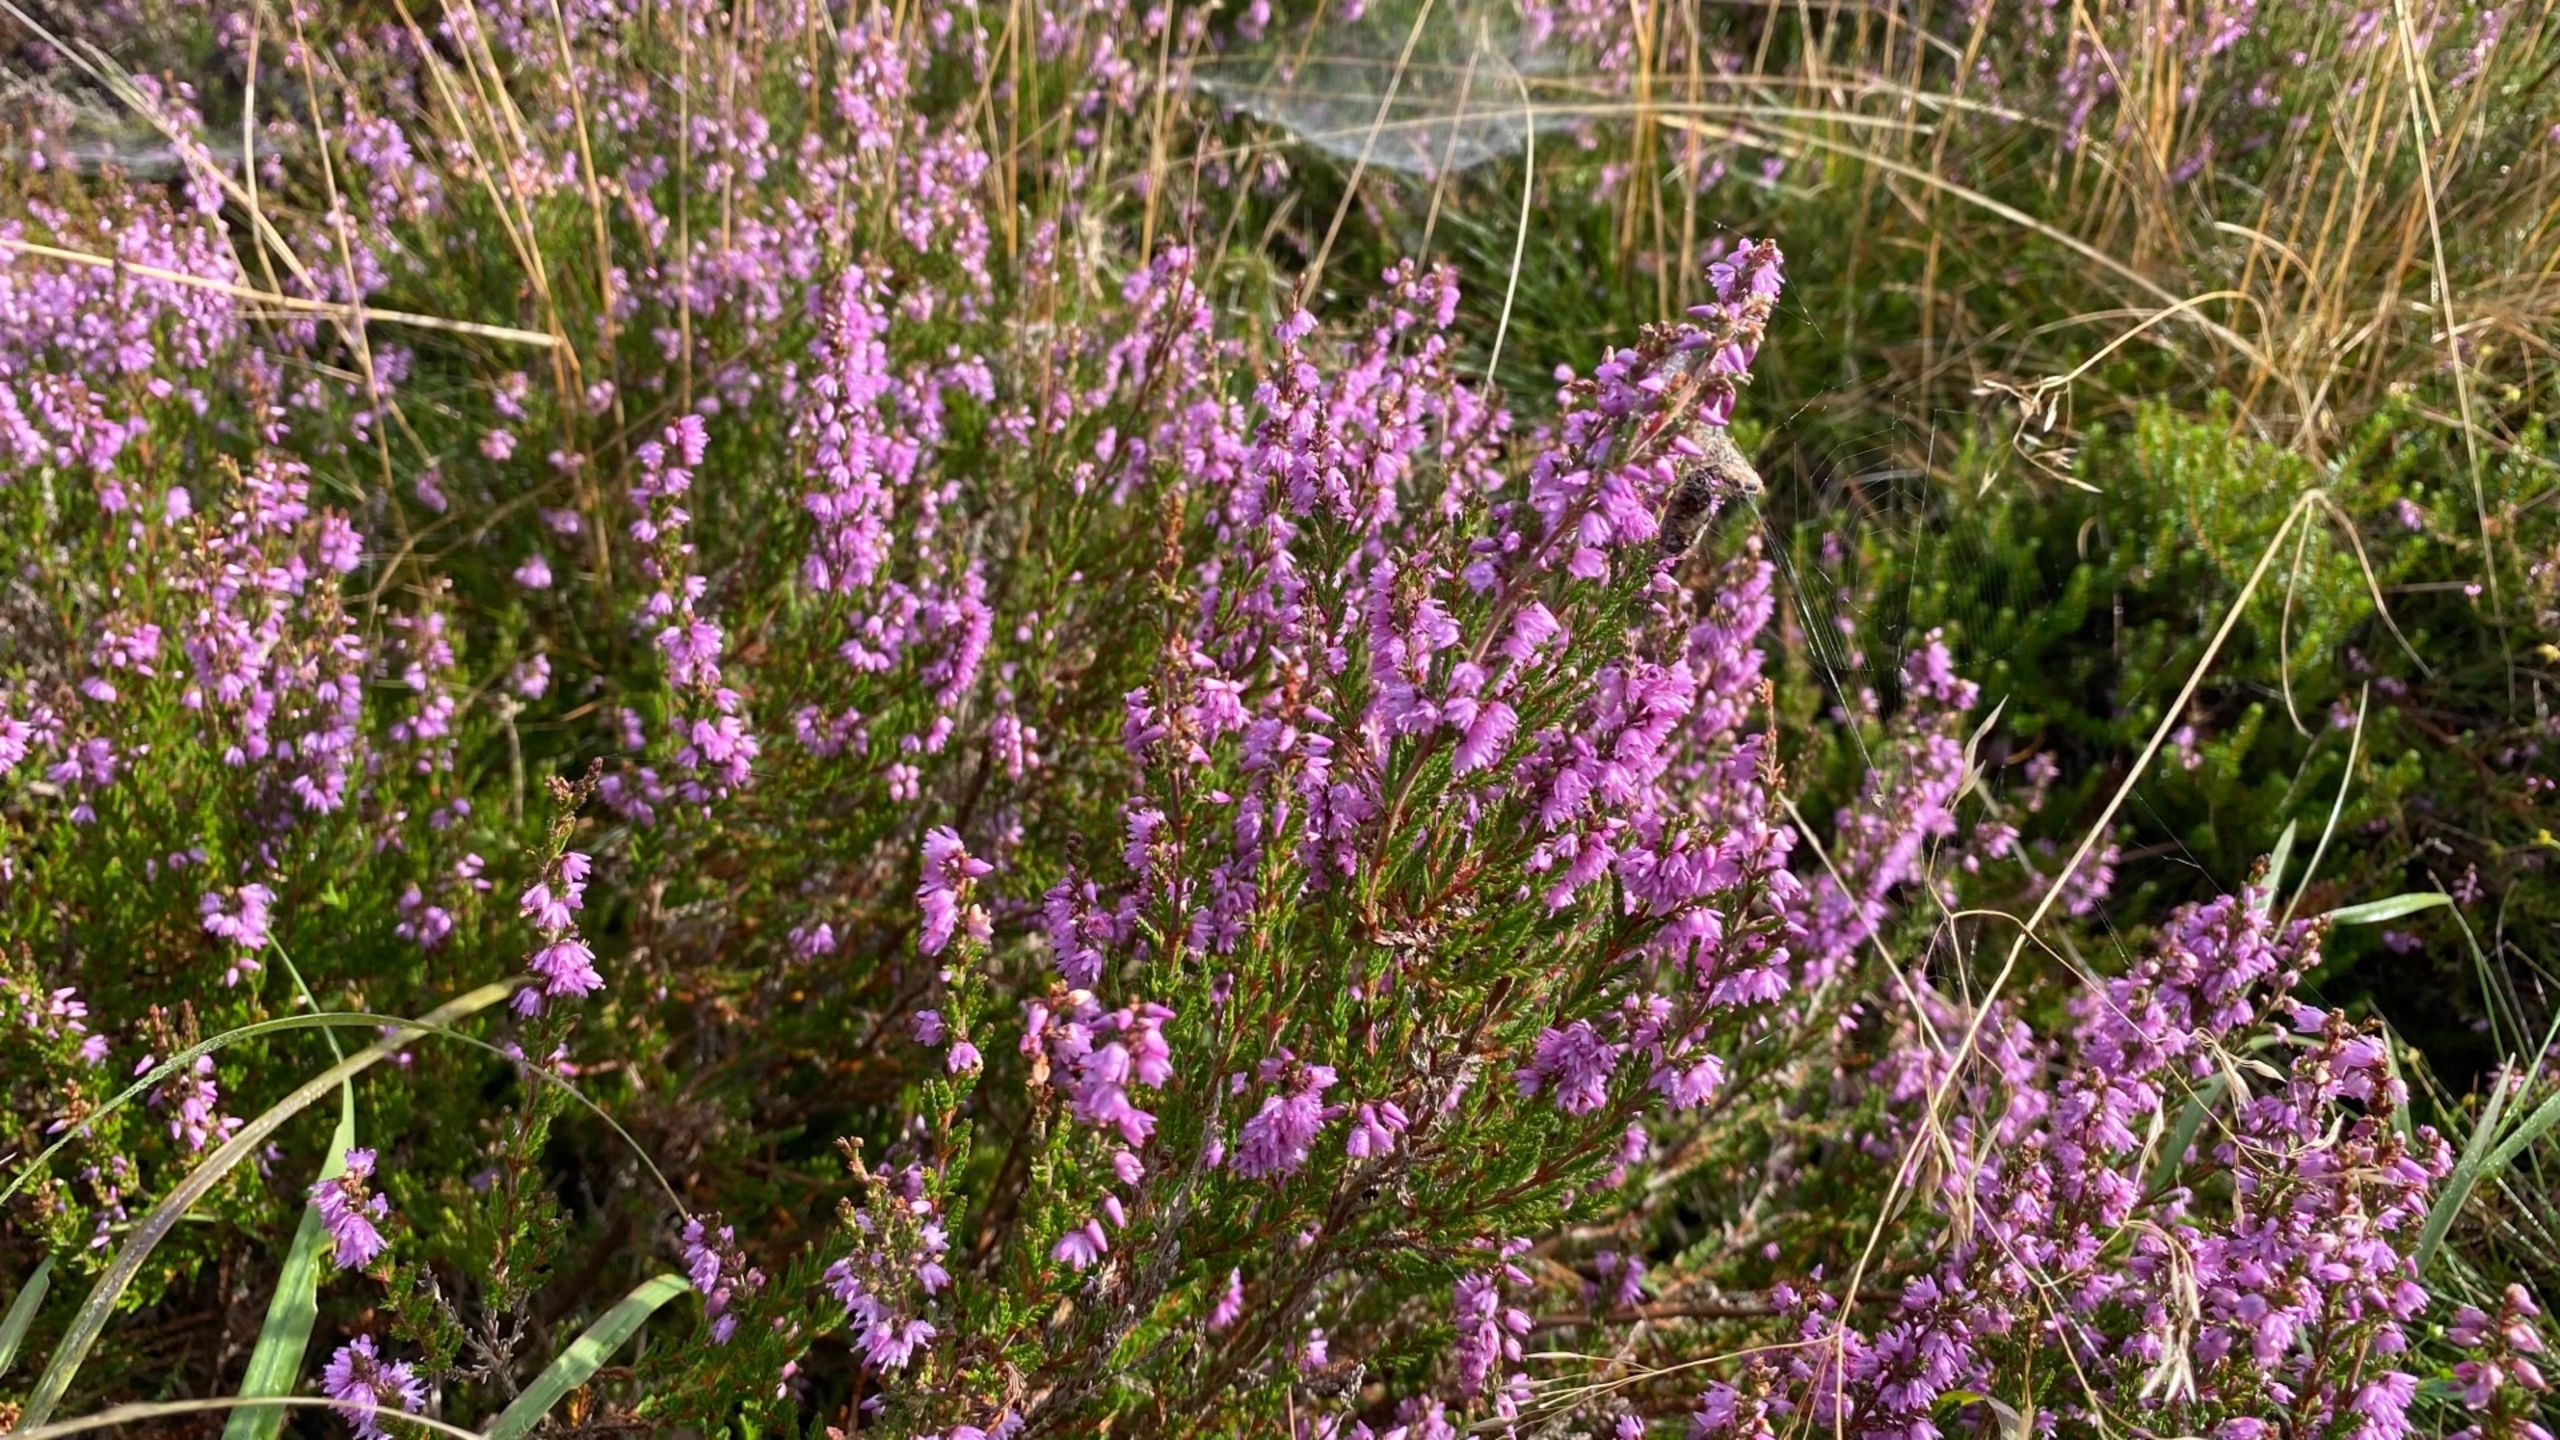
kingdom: Plantae
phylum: Tracheophyta
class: Magnoliopsida
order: Ericales
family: Ericaceae
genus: Calluna
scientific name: Calluna vulgaris
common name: Hedelyng
